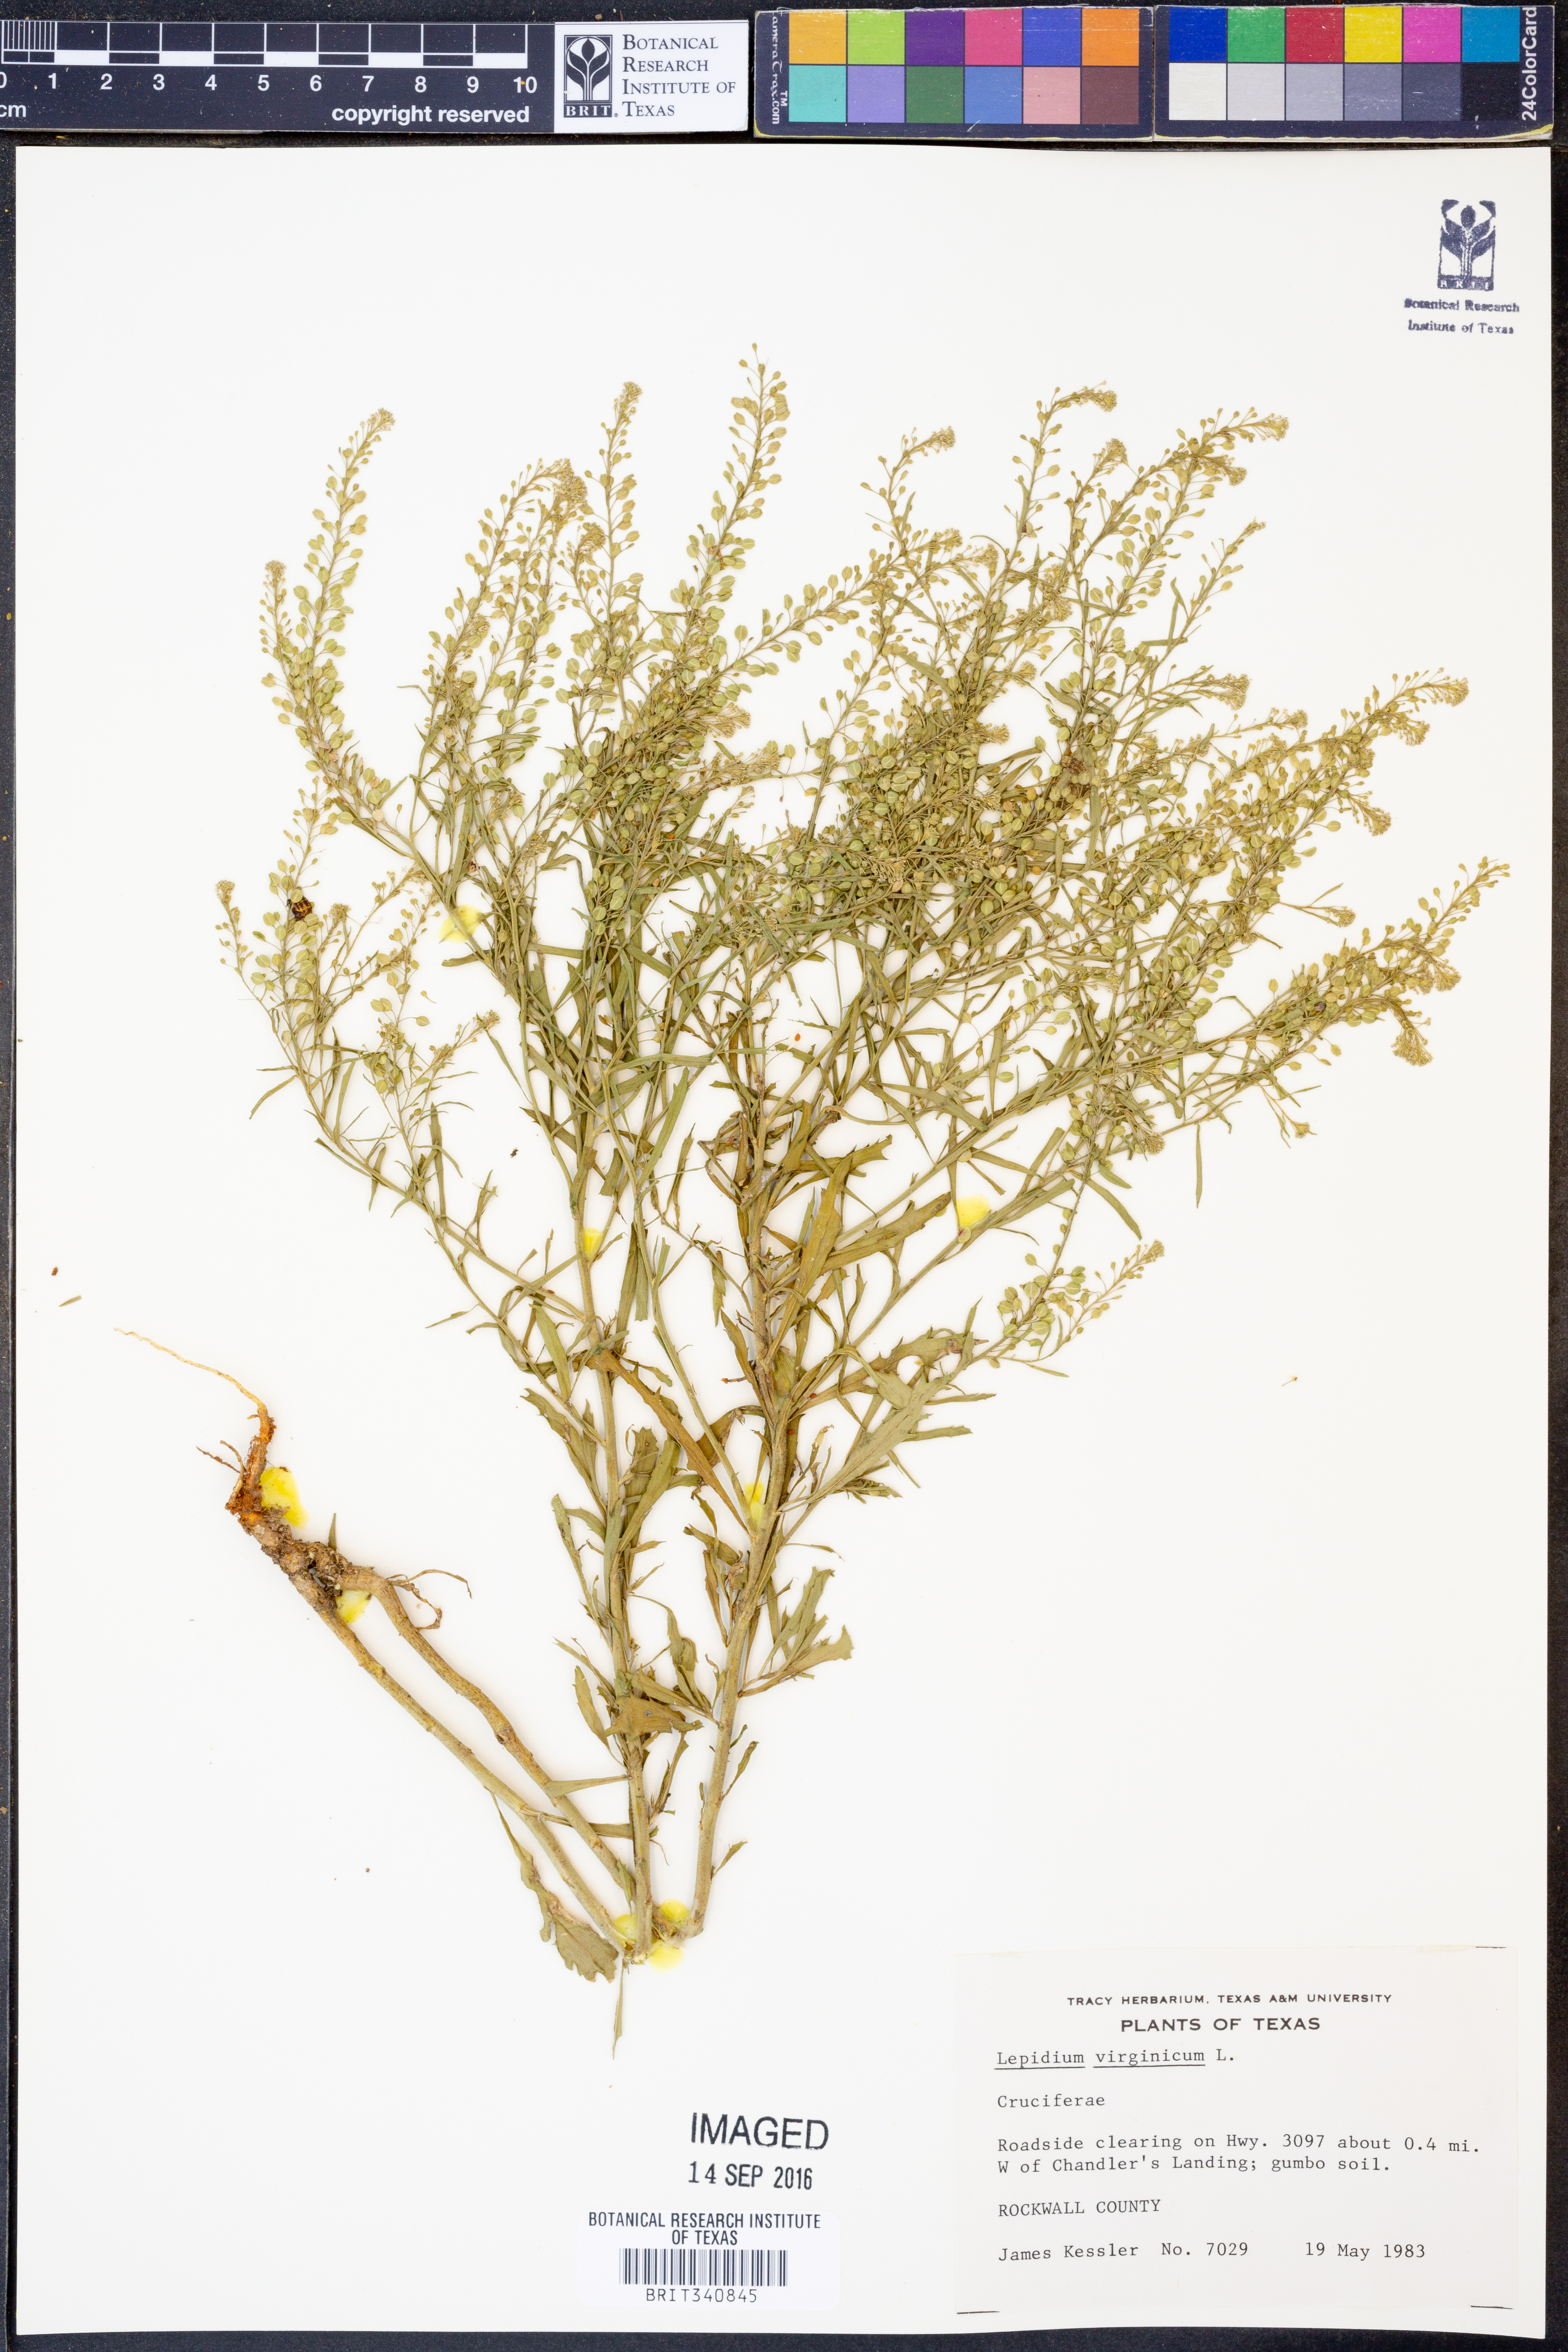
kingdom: Plantae
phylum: Tracheophyta
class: Magnoliopsida
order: Brassicales
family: Brassicaceae
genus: Lepidium
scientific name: Lepidium virginicum
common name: Least pepperwort
